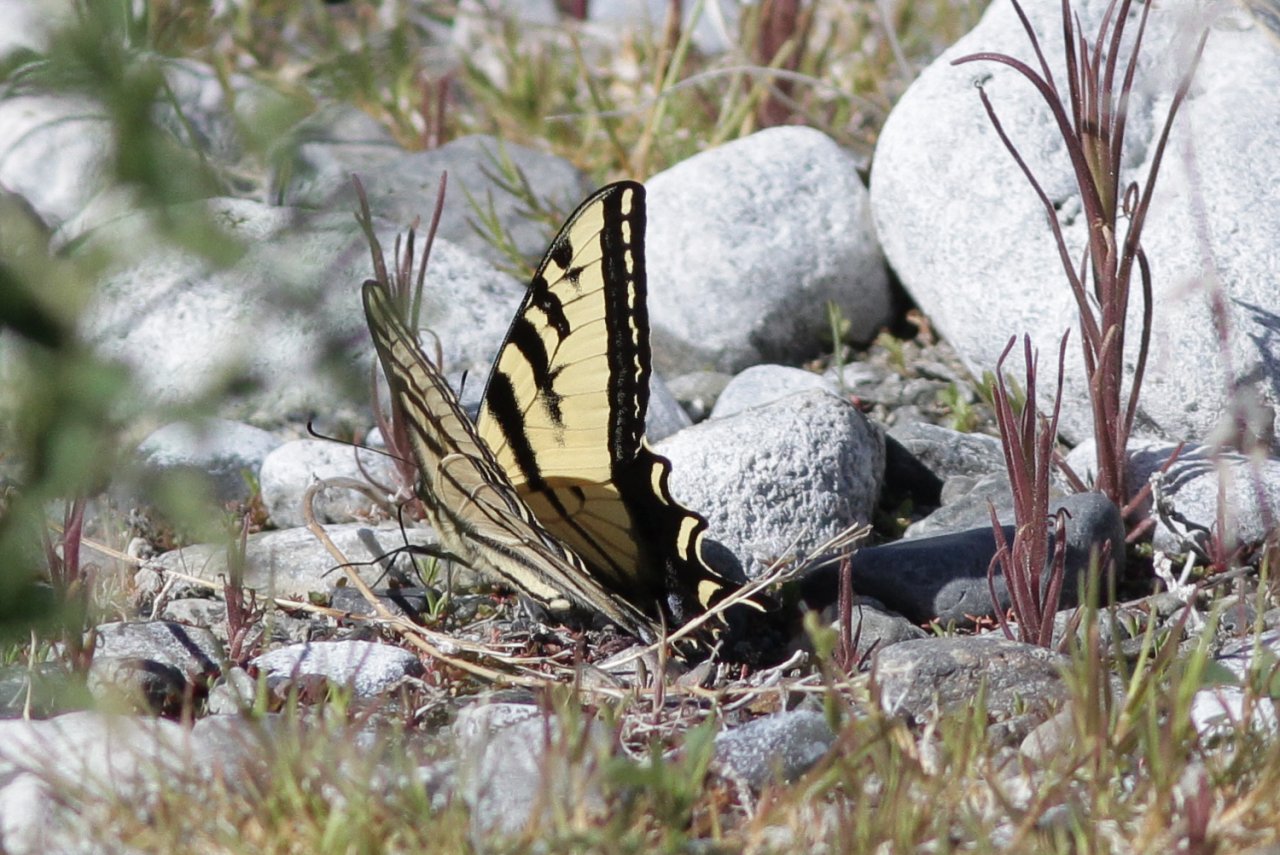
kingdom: Animalia
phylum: Arthropoda
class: Insecta
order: Lepidoptera
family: Papilionidae
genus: Pterourus
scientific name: Pterourus rutulus
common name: Western Tiger Swallowtail
